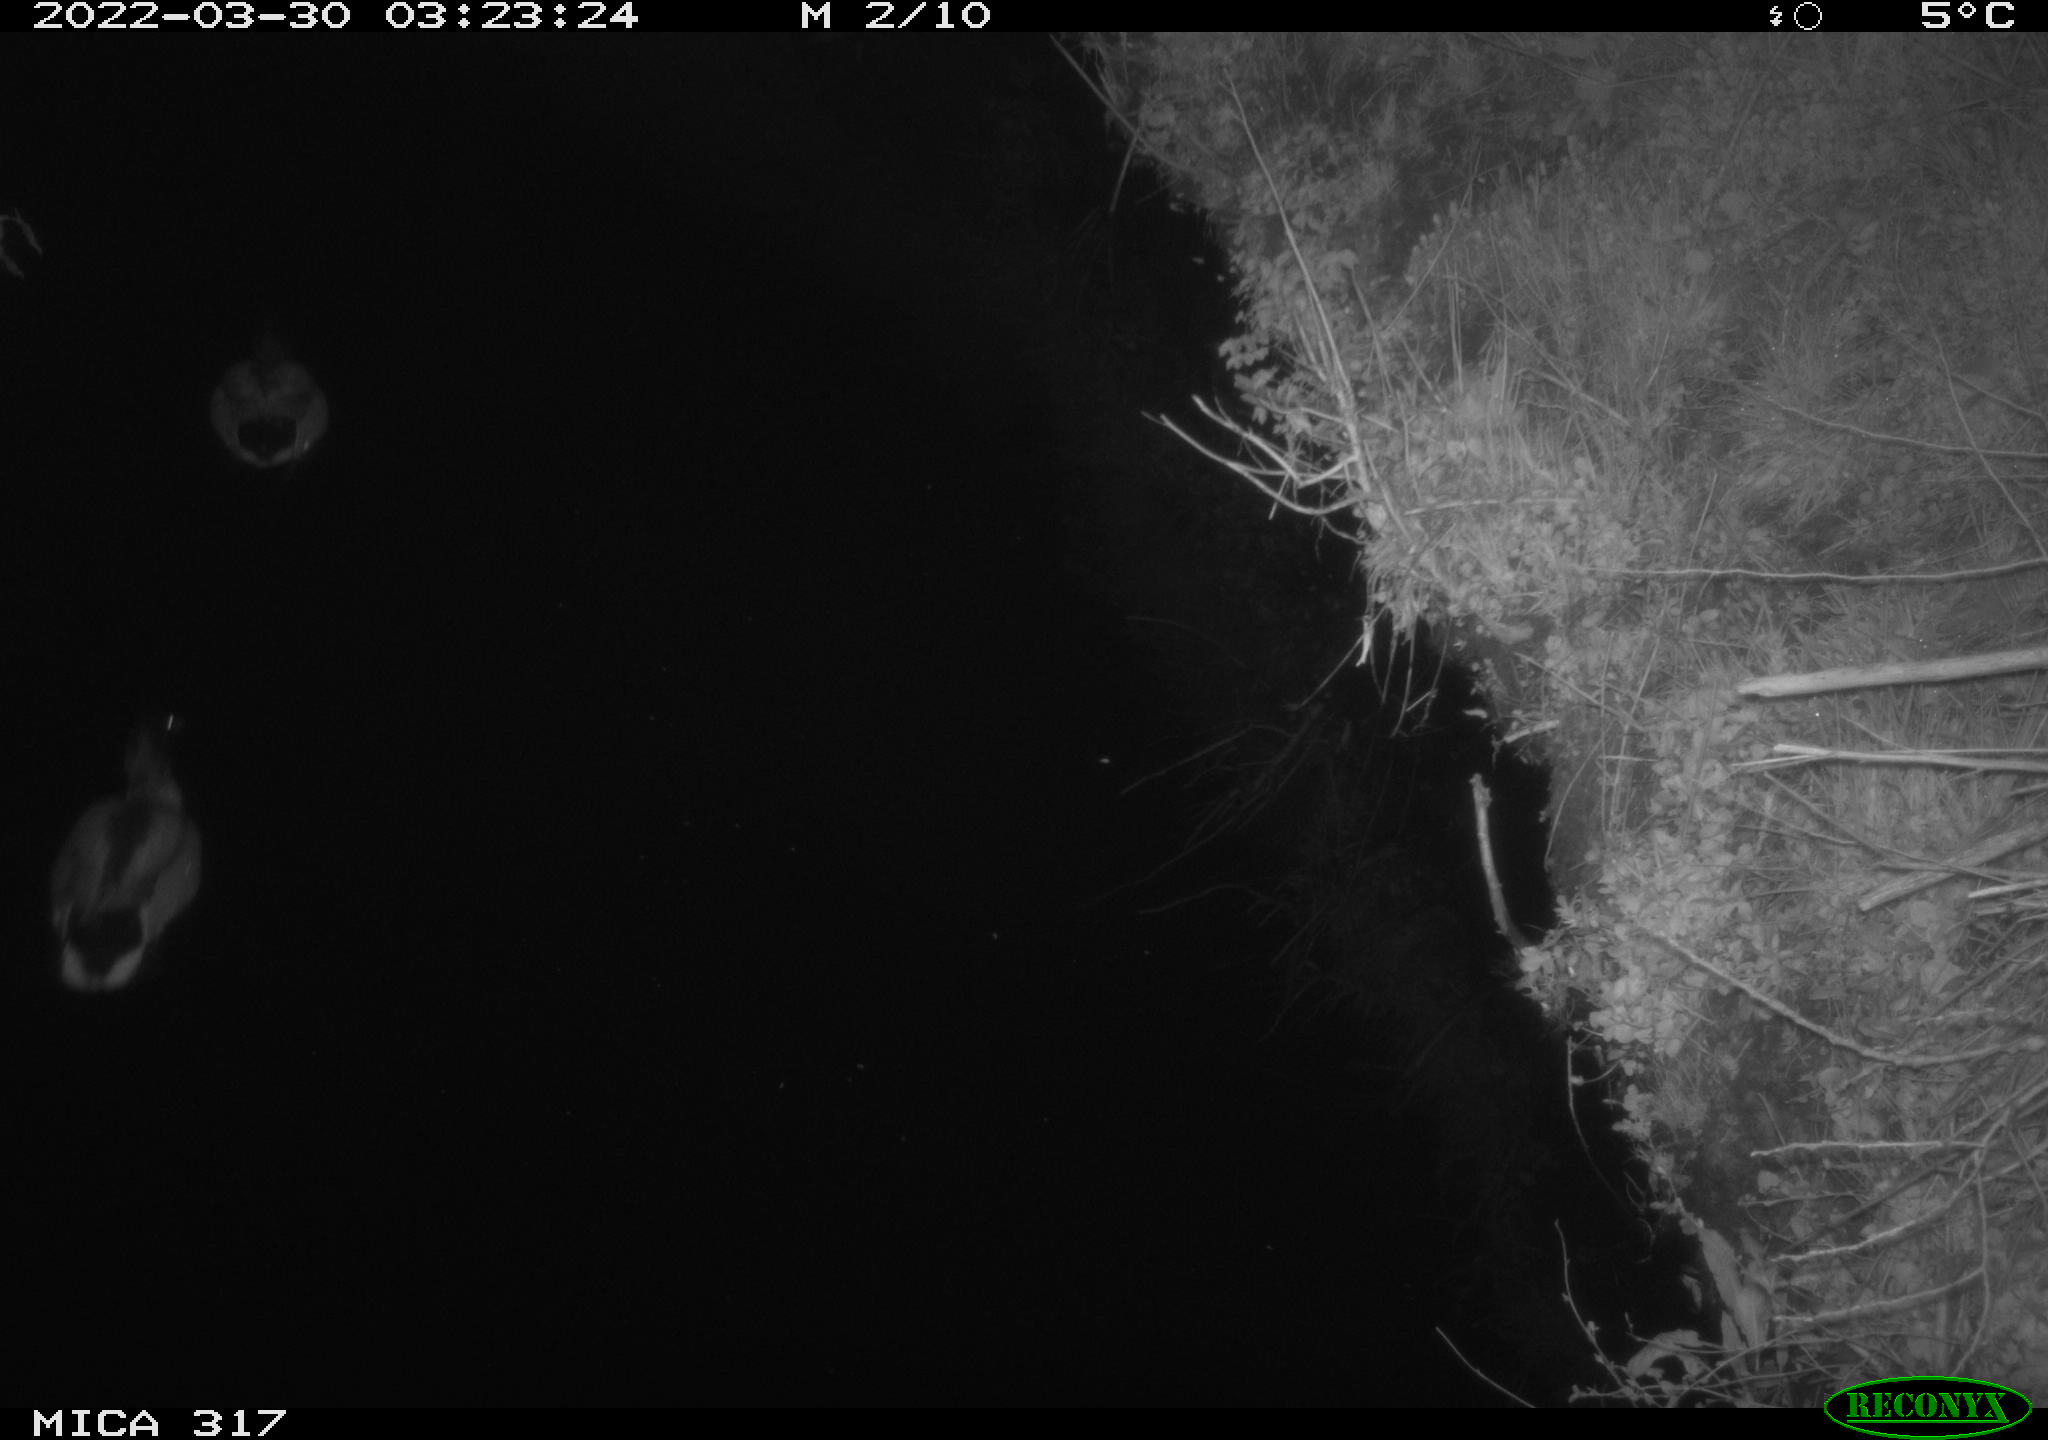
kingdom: Animalia
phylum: Chordata
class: Aves
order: Anseriformes
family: Anatidae
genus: Anas
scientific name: Anas platyrhynchos
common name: Mallard
